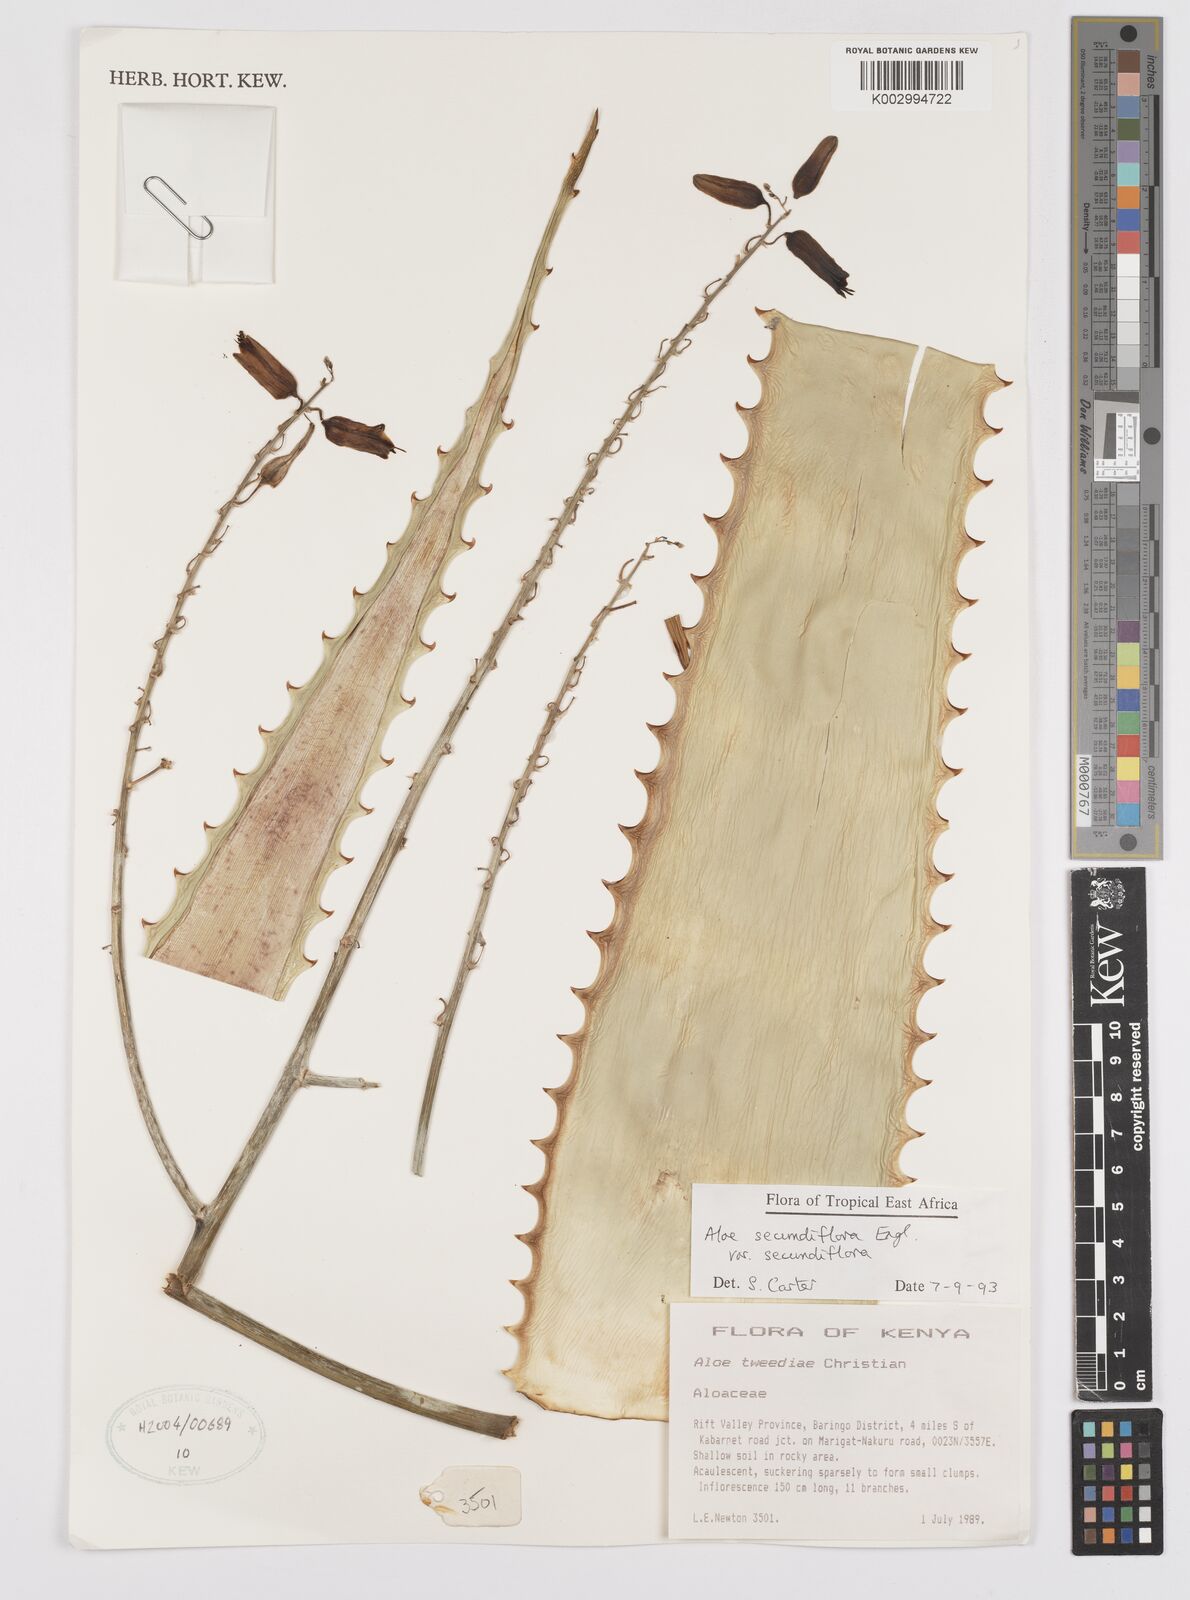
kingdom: Plantae
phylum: Tracheophyta
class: Liliopsida
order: Asparagales
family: Asphodelaceae
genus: Aloe
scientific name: Aloe secundiflora
